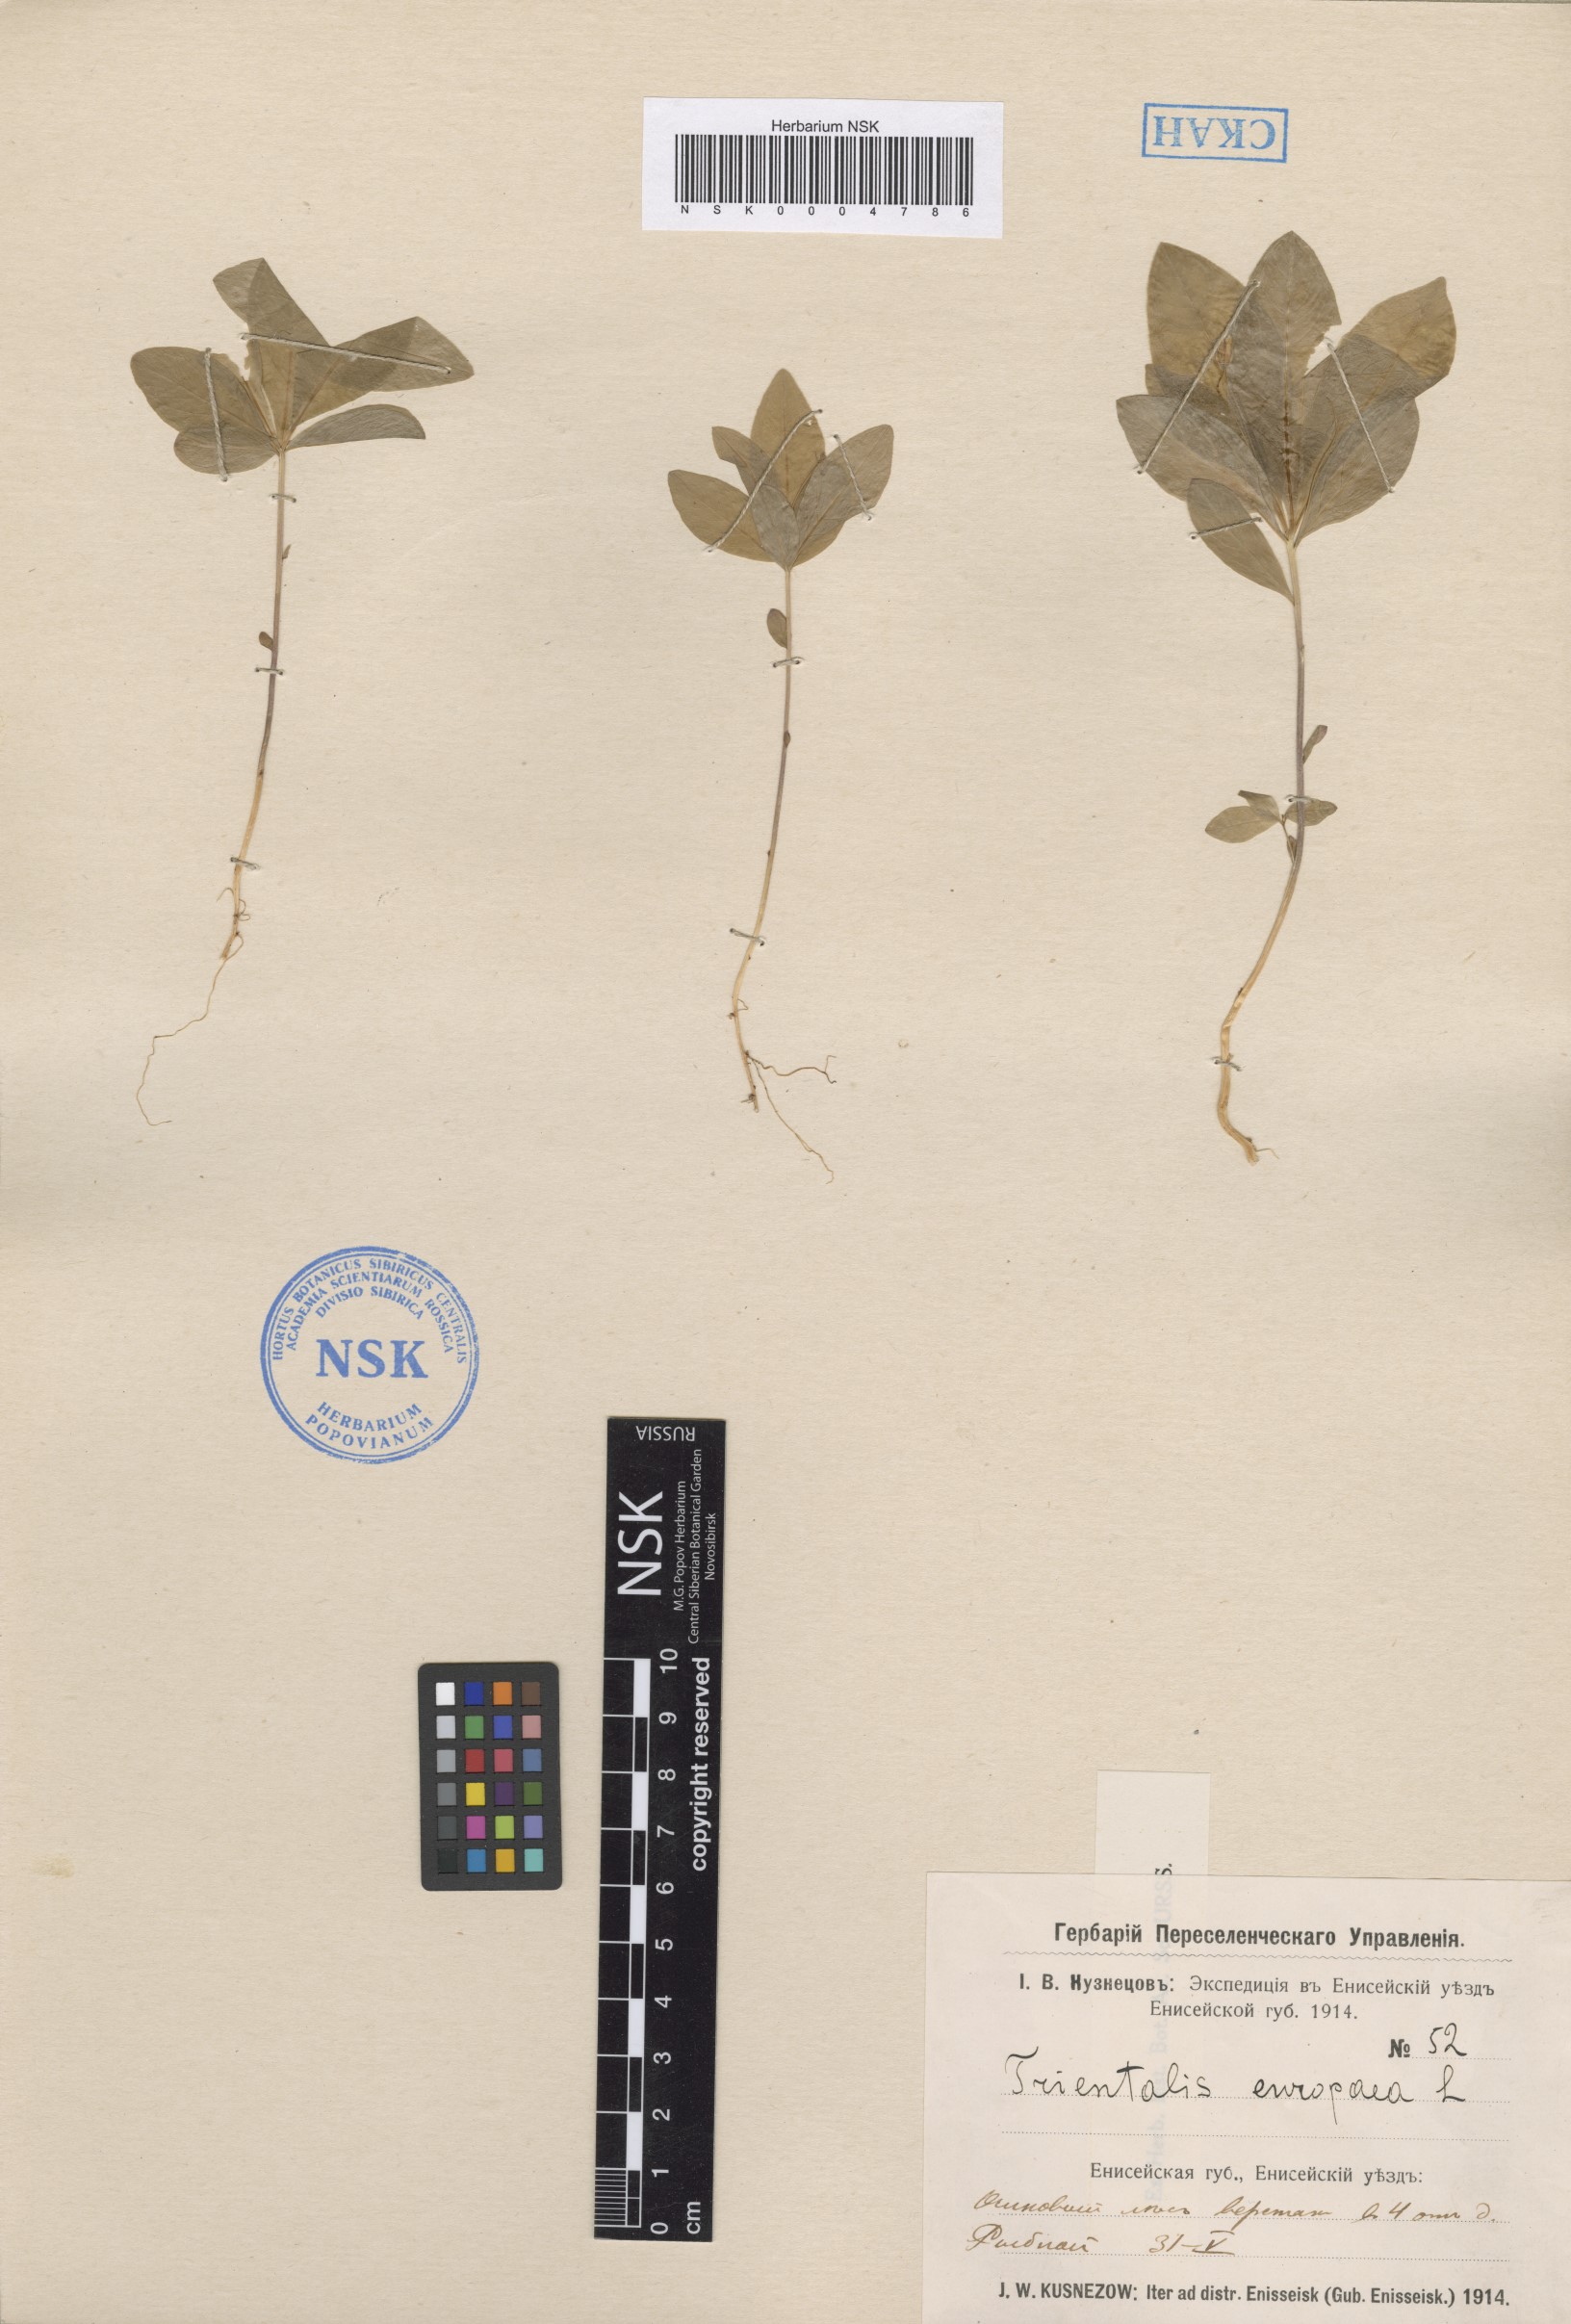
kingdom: Plantae
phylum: Tracheophyta
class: Magnoliopsida
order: Ericales
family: Primulaceae
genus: Lysimachia
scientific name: Lysimachia europaea
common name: Arctic starflower
